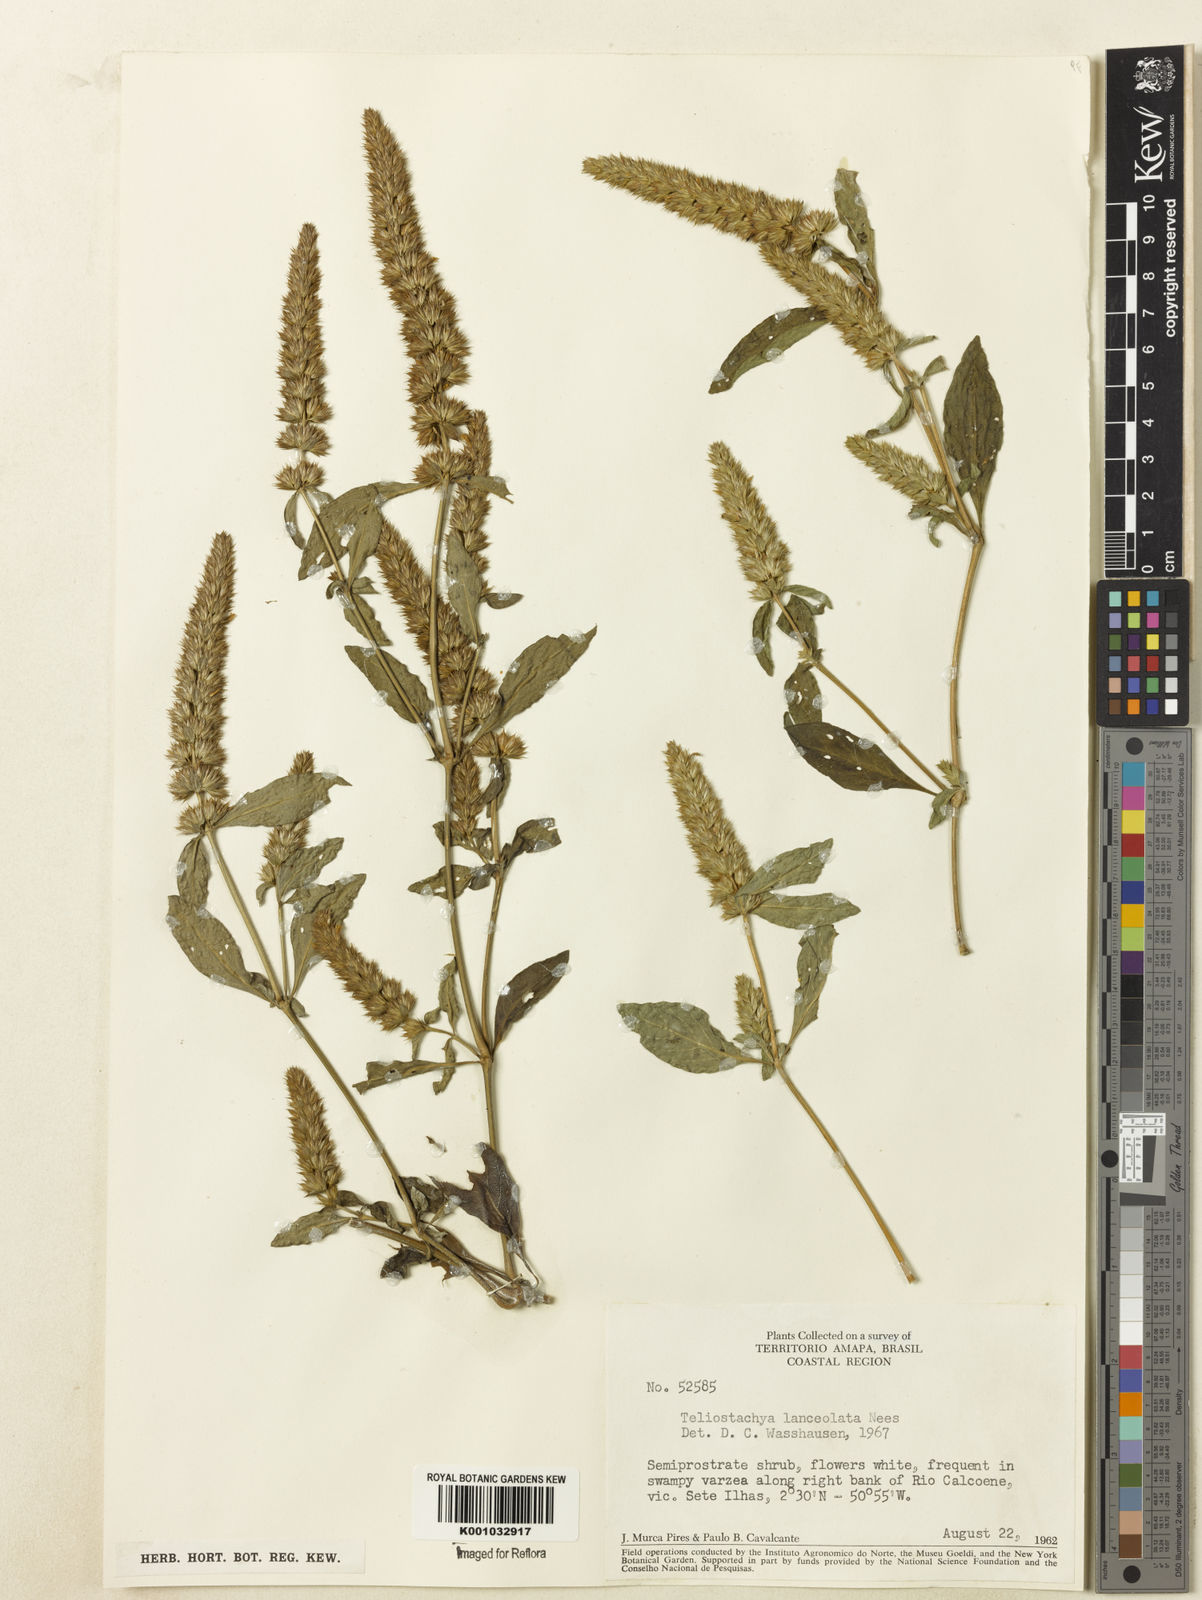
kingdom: Plantae
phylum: Tracheophyta
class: Magnoliopsida
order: Lamiales
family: Acanthaceae
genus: Lepidagathis
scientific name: Lepidagathis alopecuroidea
